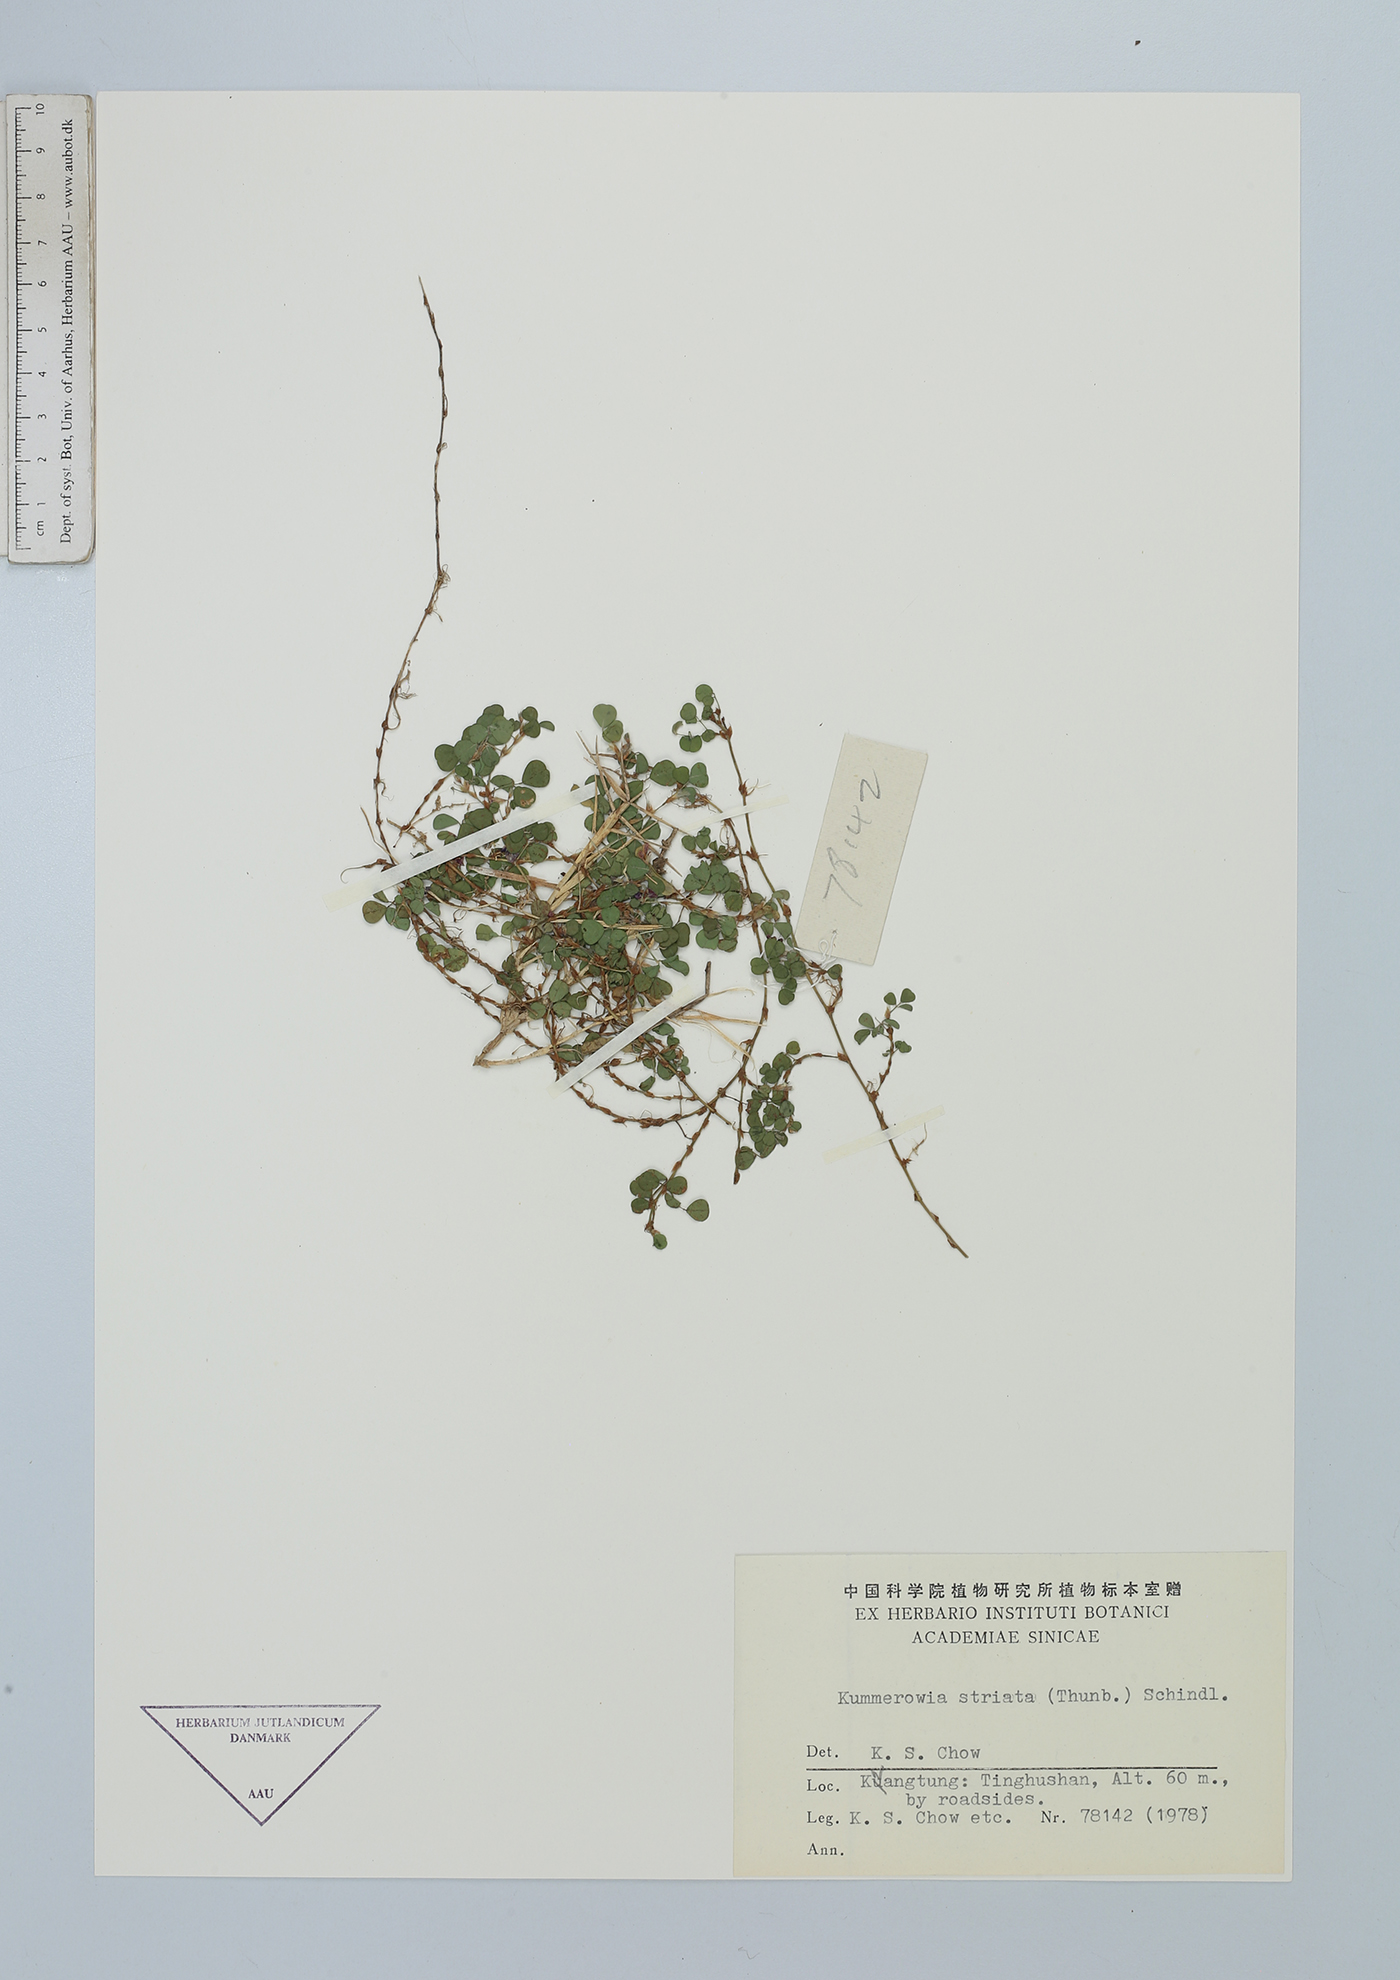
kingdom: Plantae
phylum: Tracheophyta
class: Magnoliopsida
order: Fabales
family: Fabaceae
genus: Kummerowia
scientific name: Kummerowia striata
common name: Japanese clover
